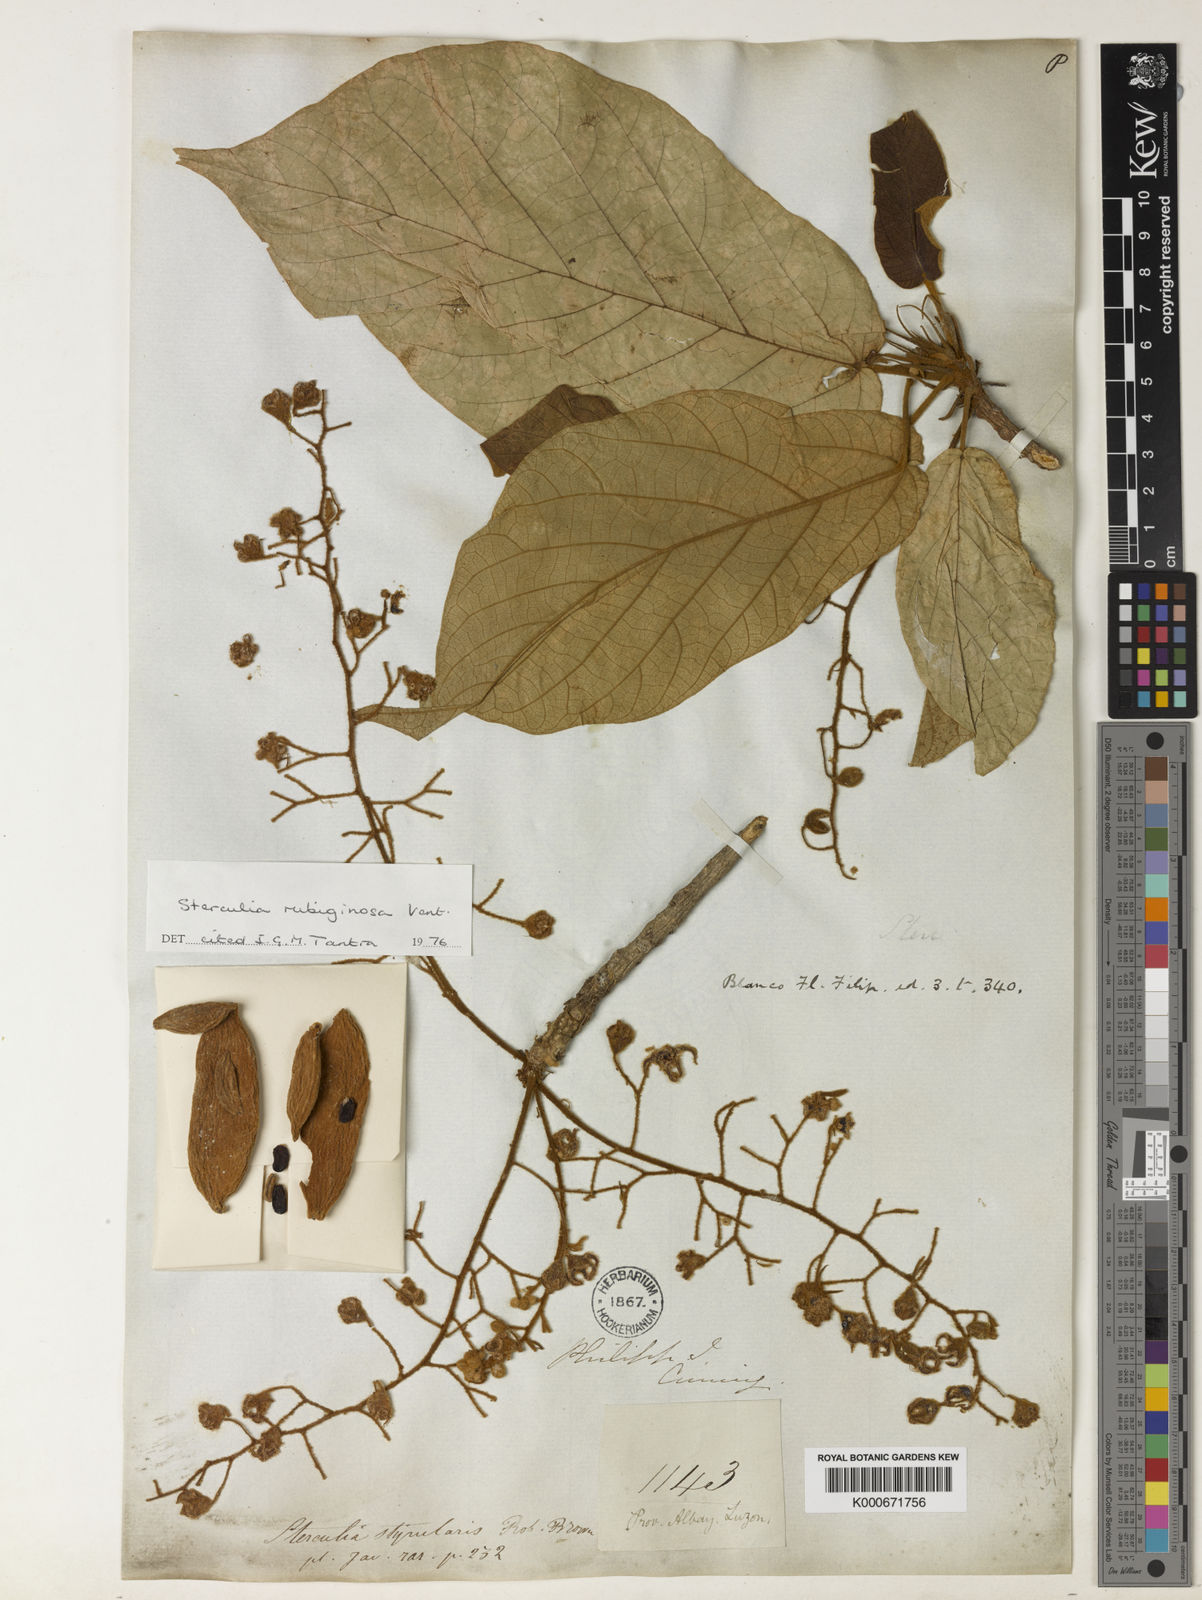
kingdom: Plantae
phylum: Tracheophyta
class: Magnoliopsida
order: Malvales
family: Malvaceae
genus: Sterculia
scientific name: Sterculia rubiginosa
